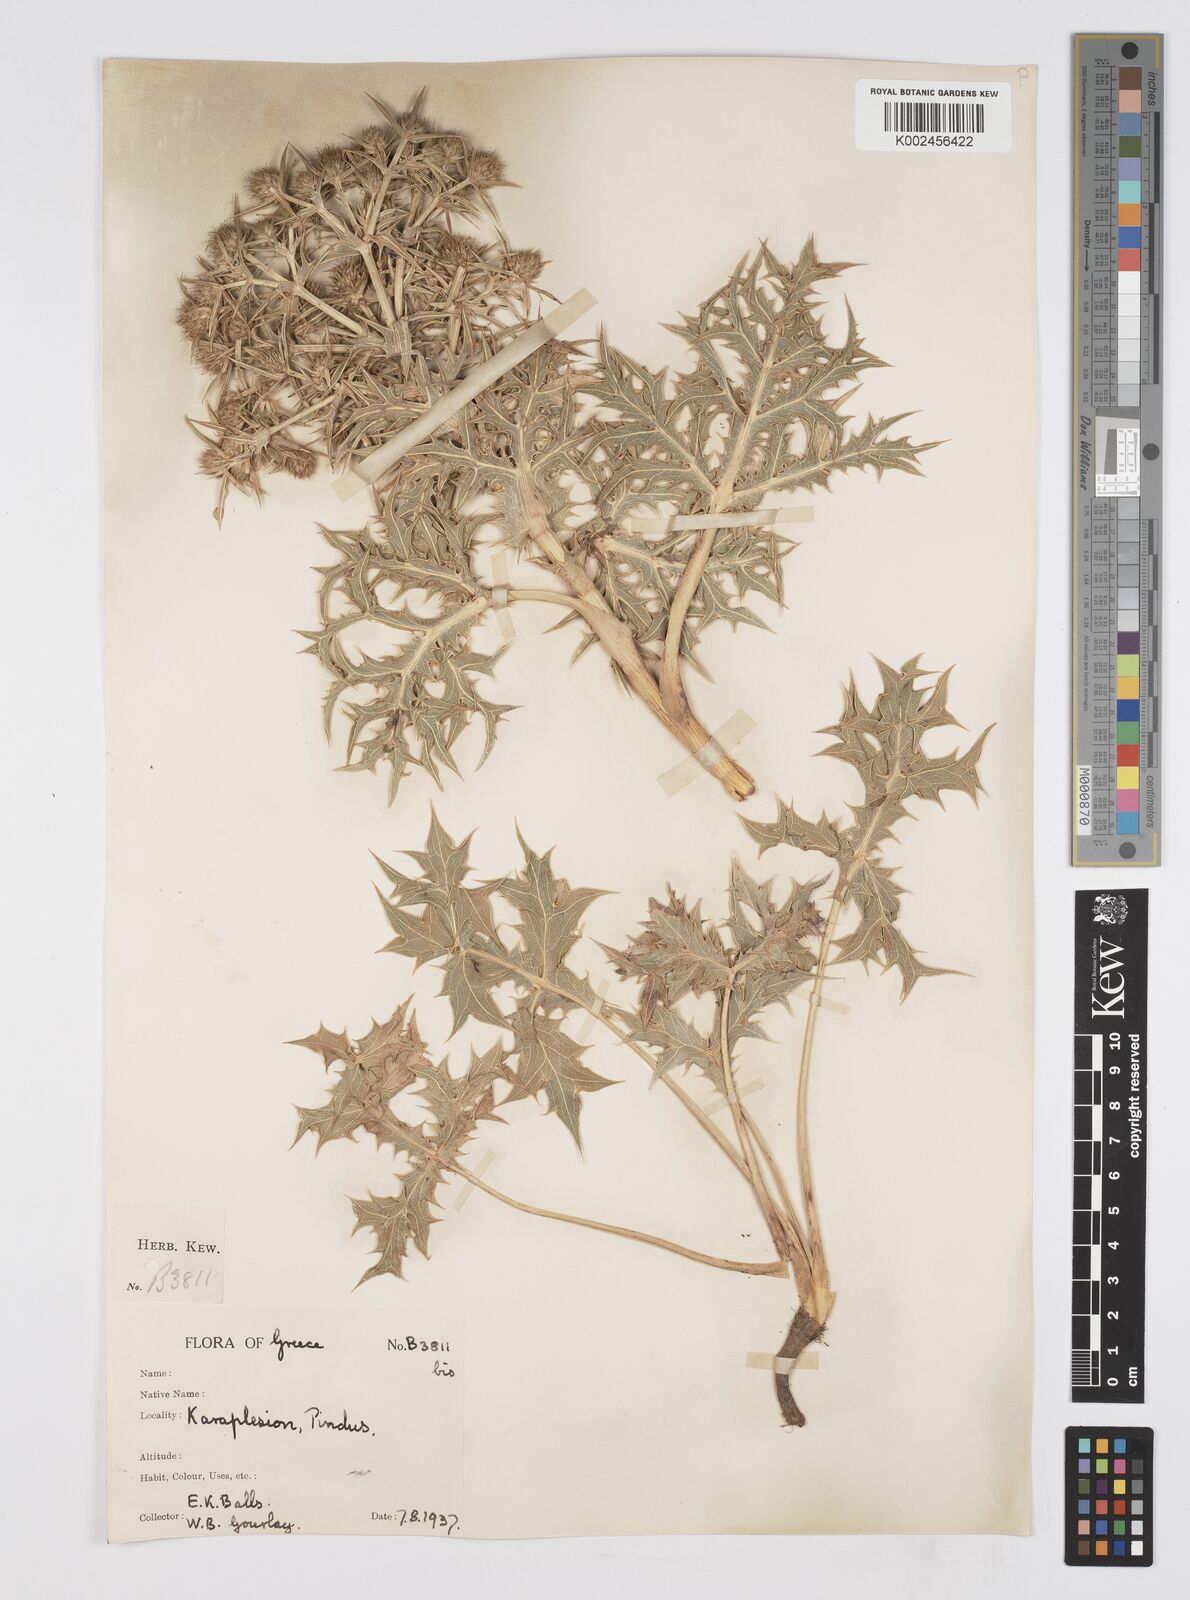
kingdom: Plantae
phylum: Tracheophyta
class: Magnoliopsida
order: Apiales
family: Apiaceae
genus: Eryngium
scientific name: Eryngium campestre
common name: Field eryngo
